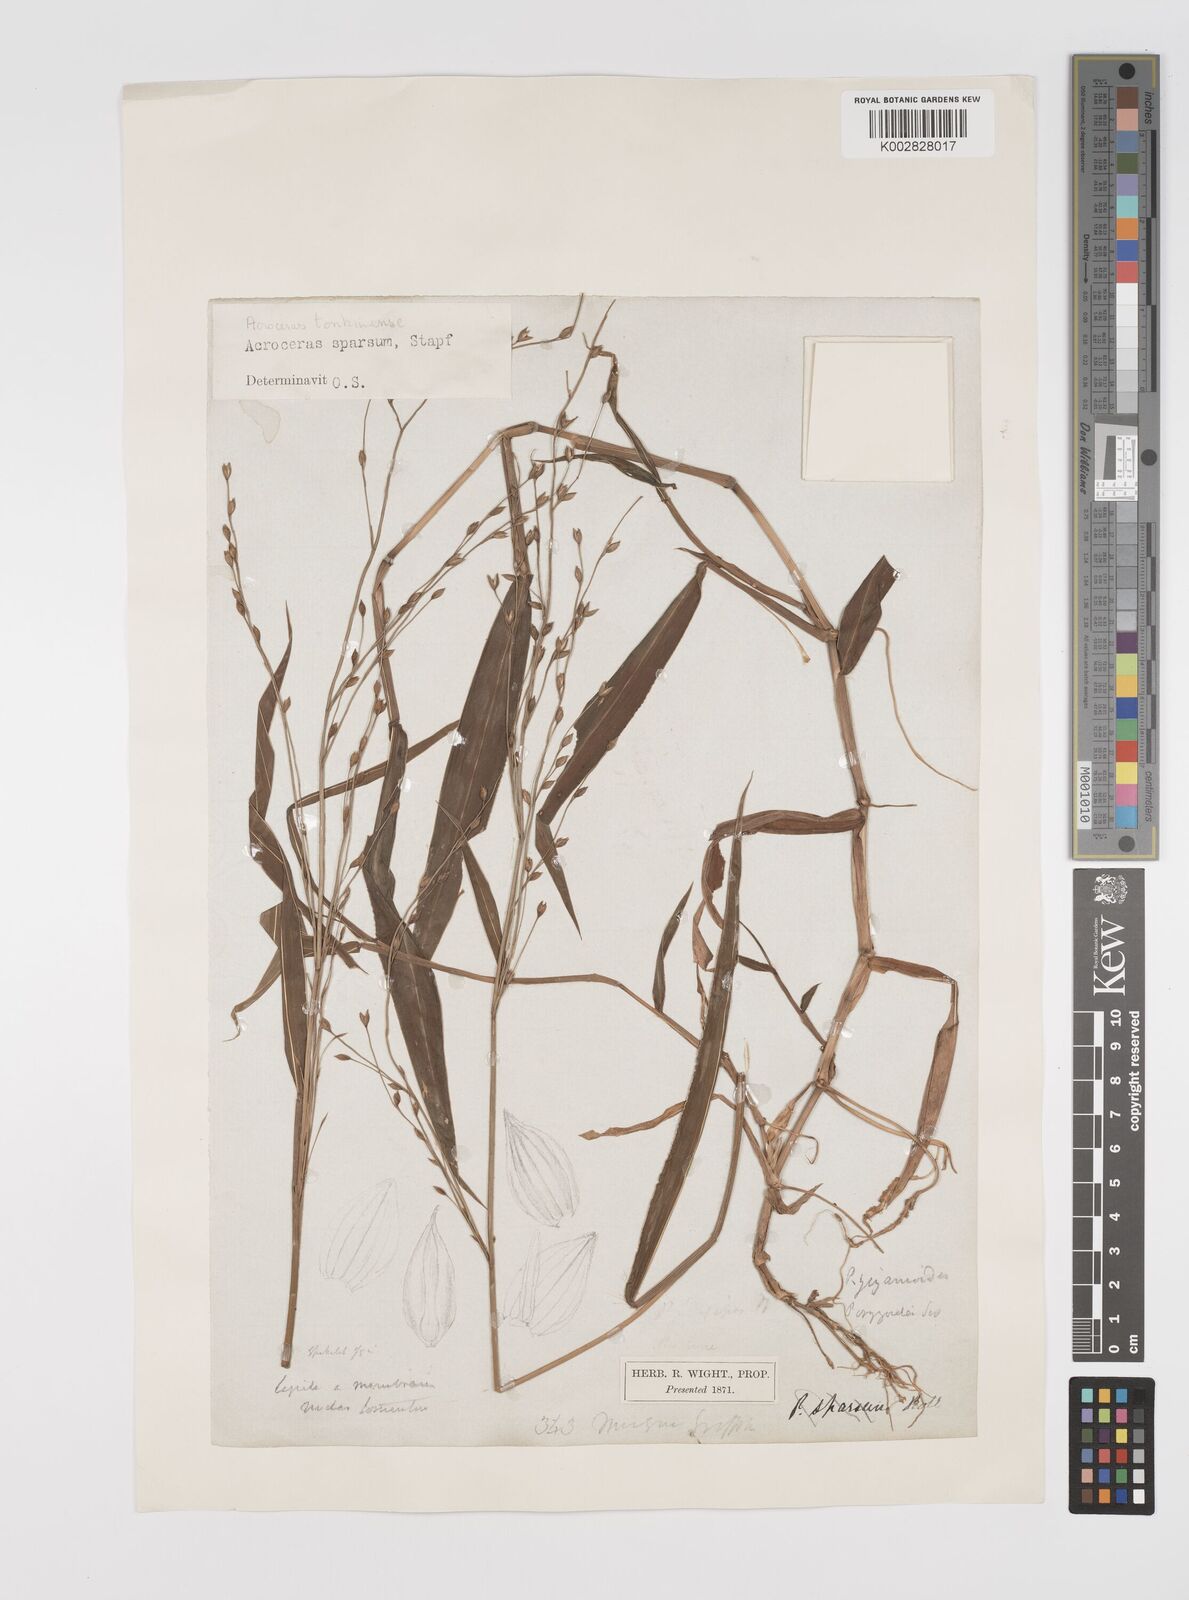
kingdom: Plantae
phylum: Tracheophyta
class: Liliopsida
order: Poales
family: Poaceae
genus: Acroceras
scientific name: Acroceras
